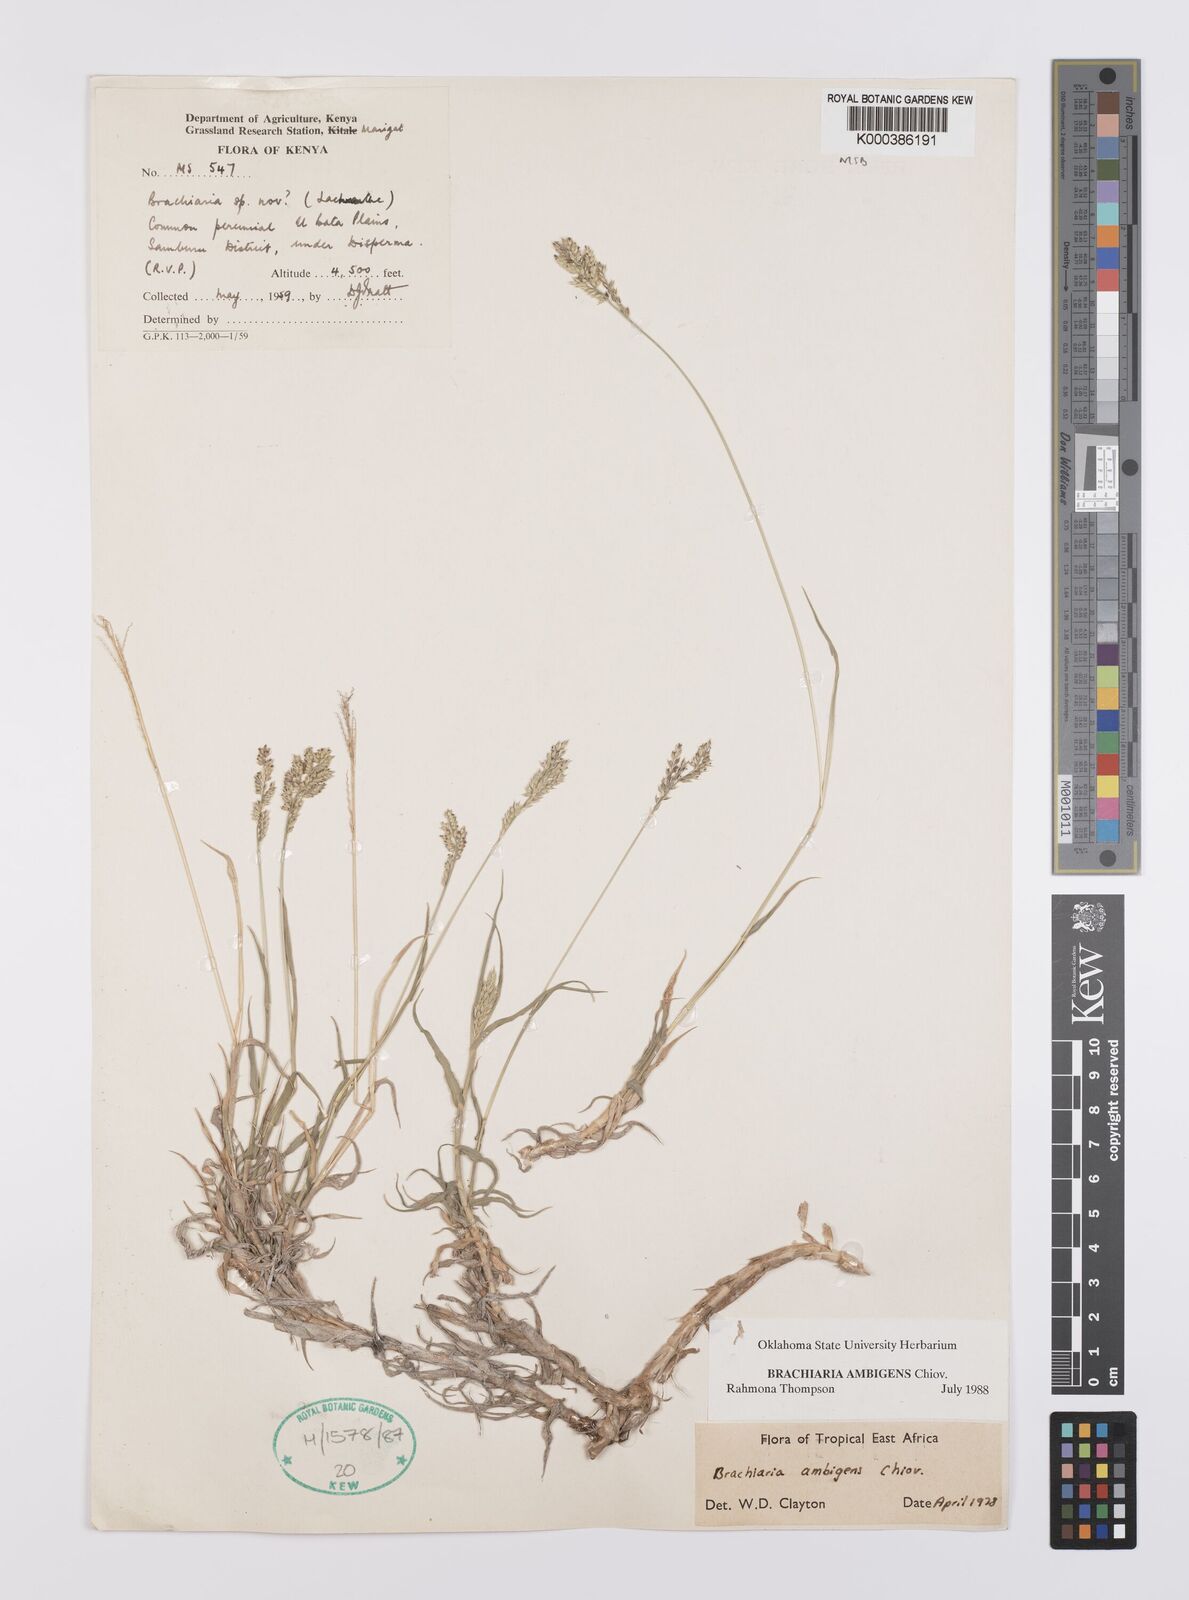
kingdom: Plantae
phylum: Tracheophyta
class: Liliopsida
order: Poales
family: Poaceae
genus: Urochloa
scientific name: Urochloa Brachiaria ambigens
